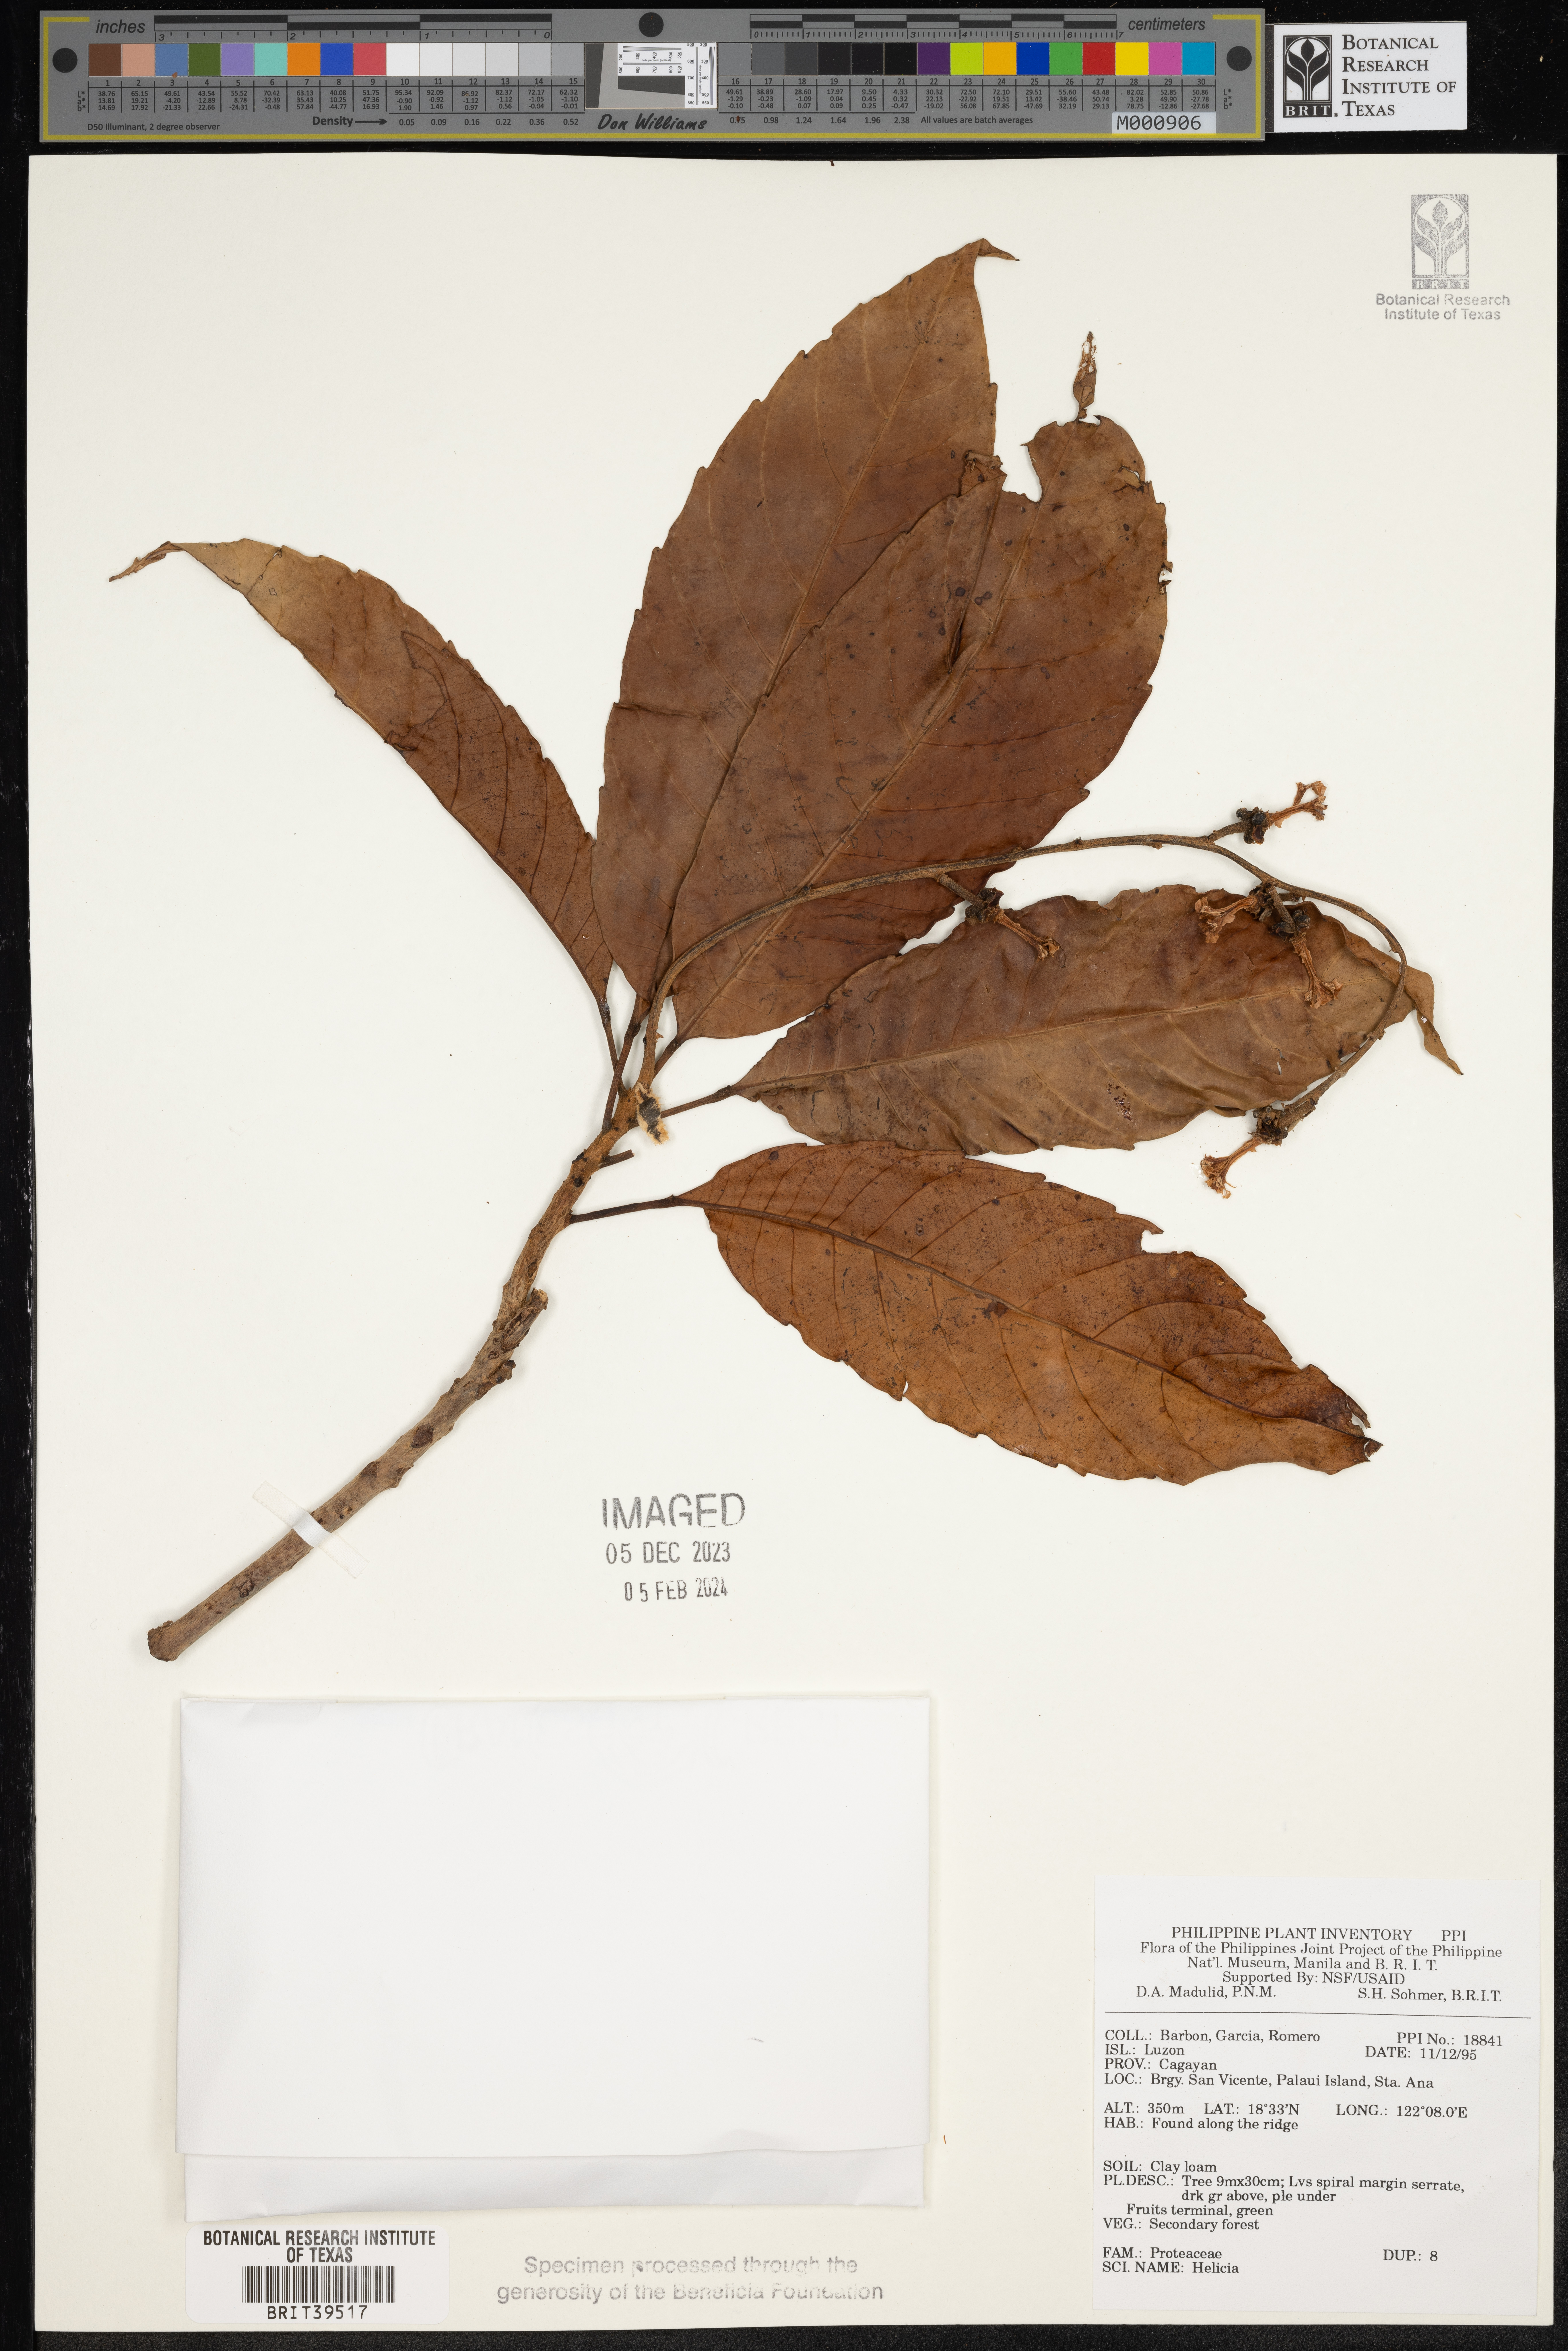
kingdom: Plantae
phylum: Tracheophyta
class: Magnoliopsida
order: Proteales
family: Proteaceae
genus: Helicia
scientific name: Helicia
